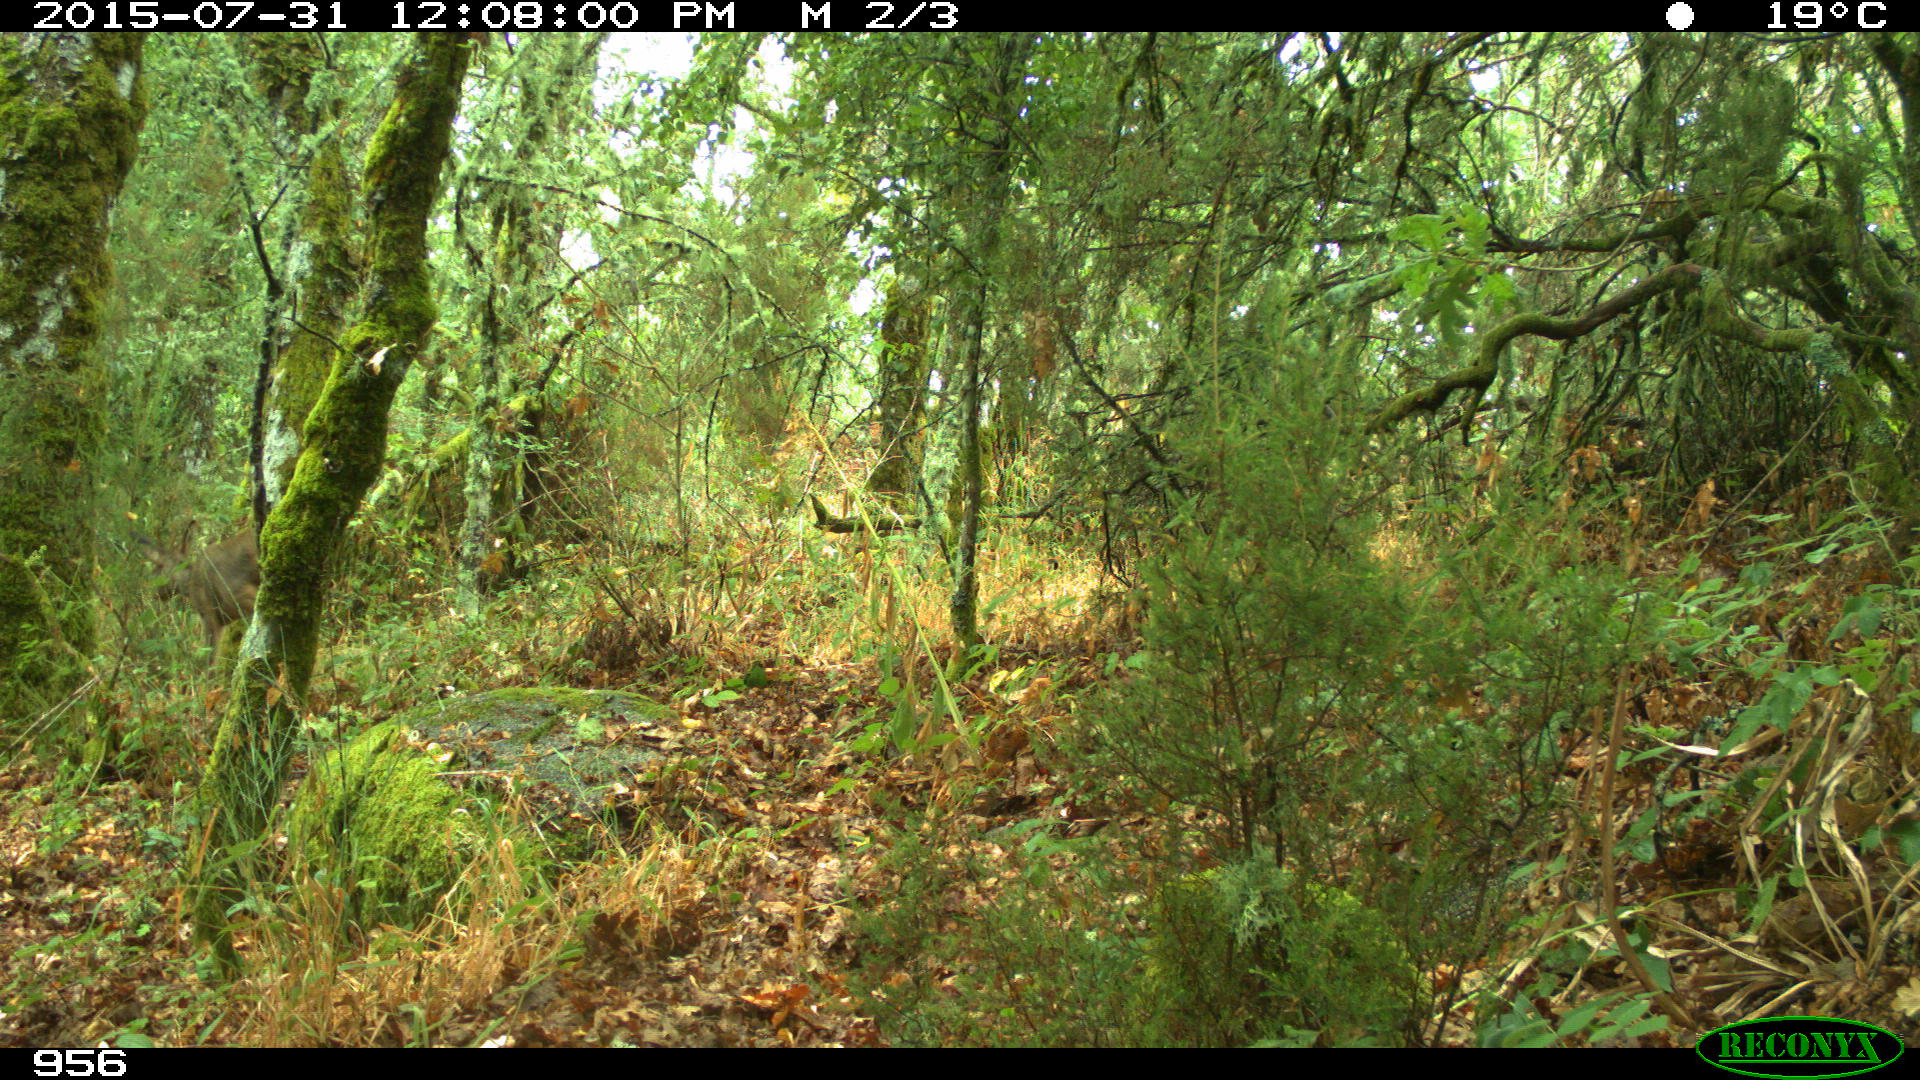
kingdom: Animalia
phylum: Chordata
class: Mammalia
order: Artiodactyla
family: Cervidae
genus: Capreolus
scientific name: Capreolus capreolus
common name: Western roe deer
